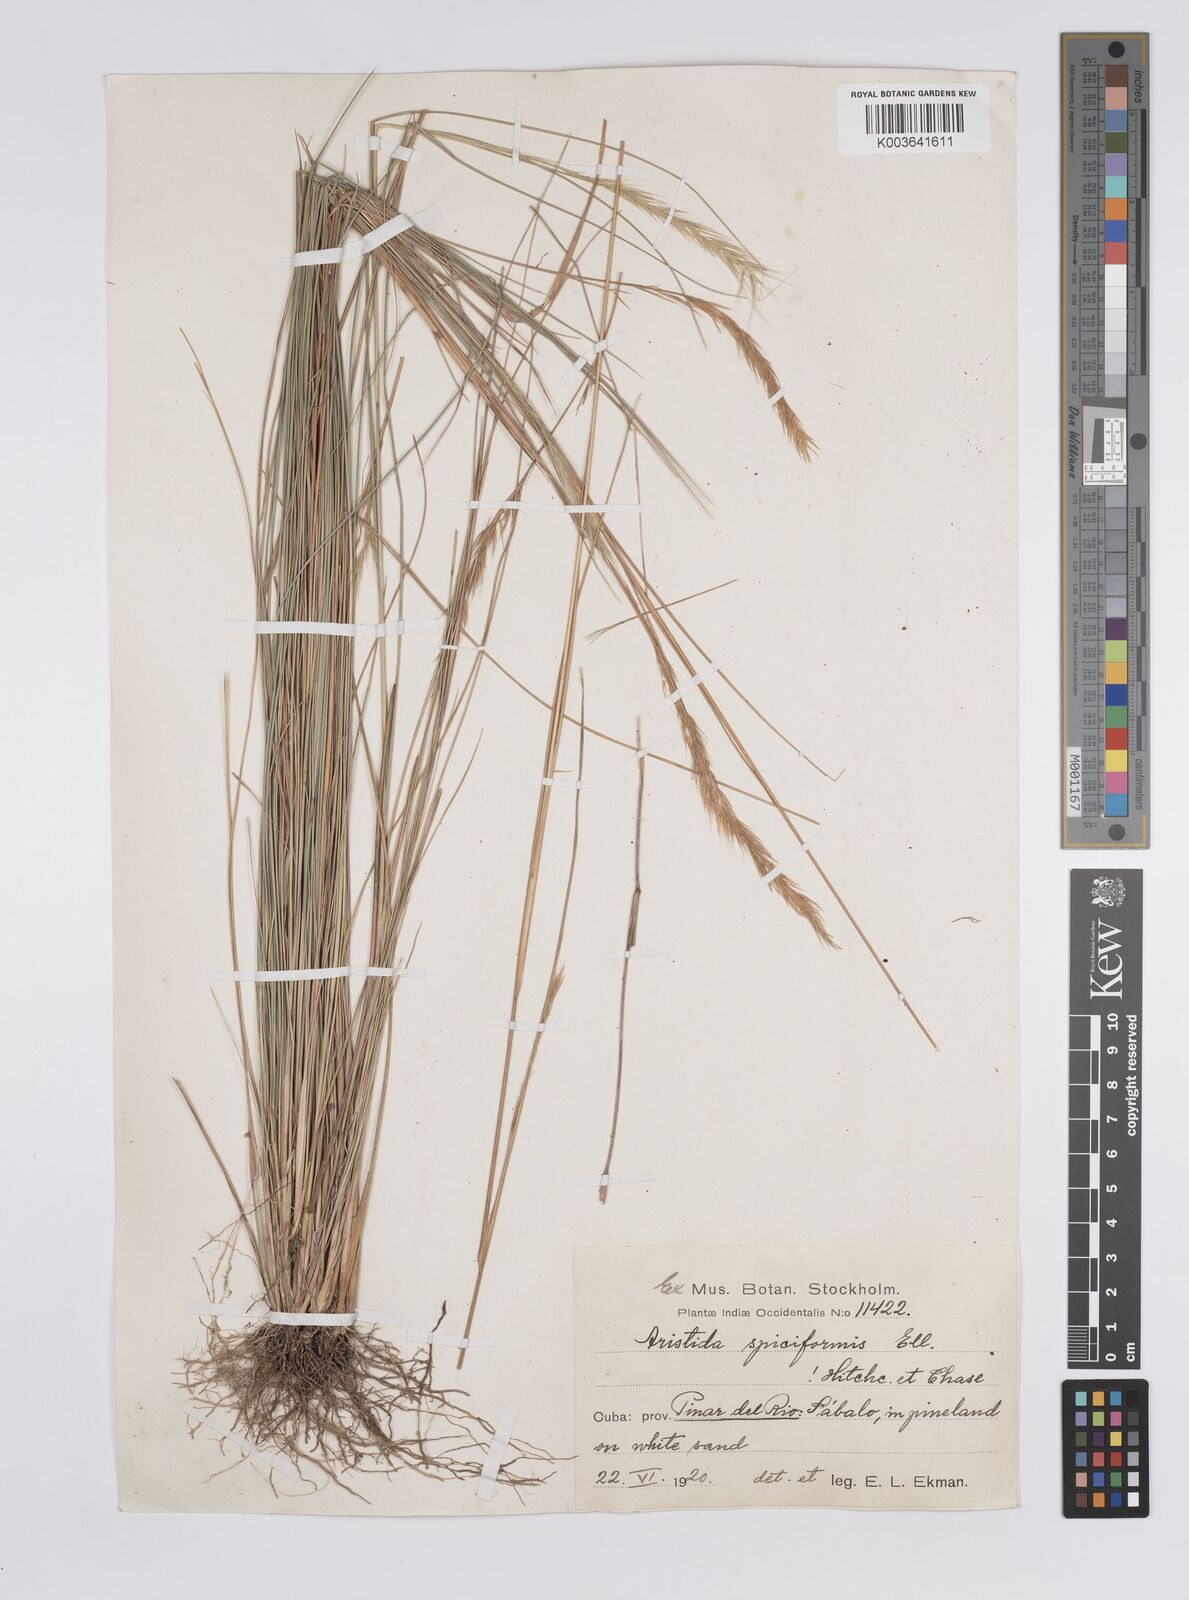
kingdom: Plantae
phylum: Tracheophyta
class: Liliopsida
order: Poales
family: Poaceae
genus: Aristida
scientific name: Aristida spiciformis
